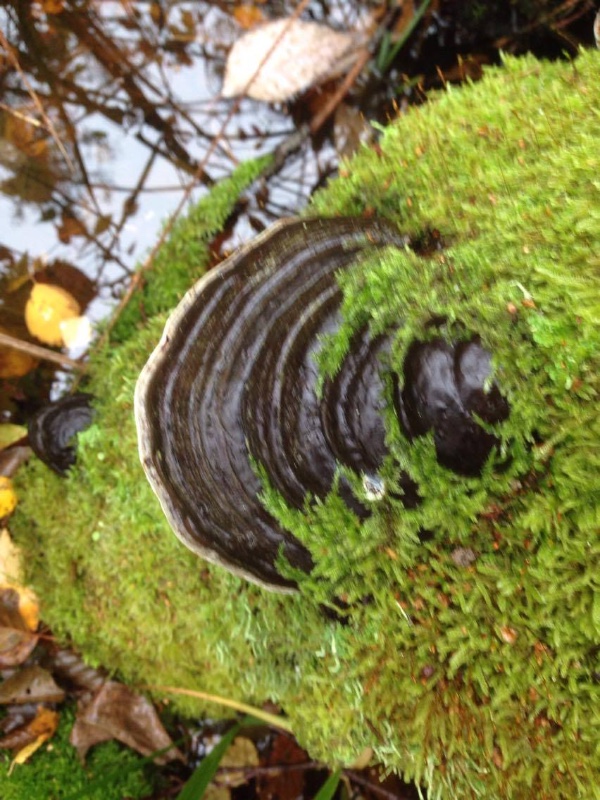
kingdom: Fungi
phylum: Basidiomycota
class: Agaricomycetes
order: Polyporales
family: Polyporaceae
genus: Fomes
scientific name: Fomes fomentarius
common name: tøndersvamp
